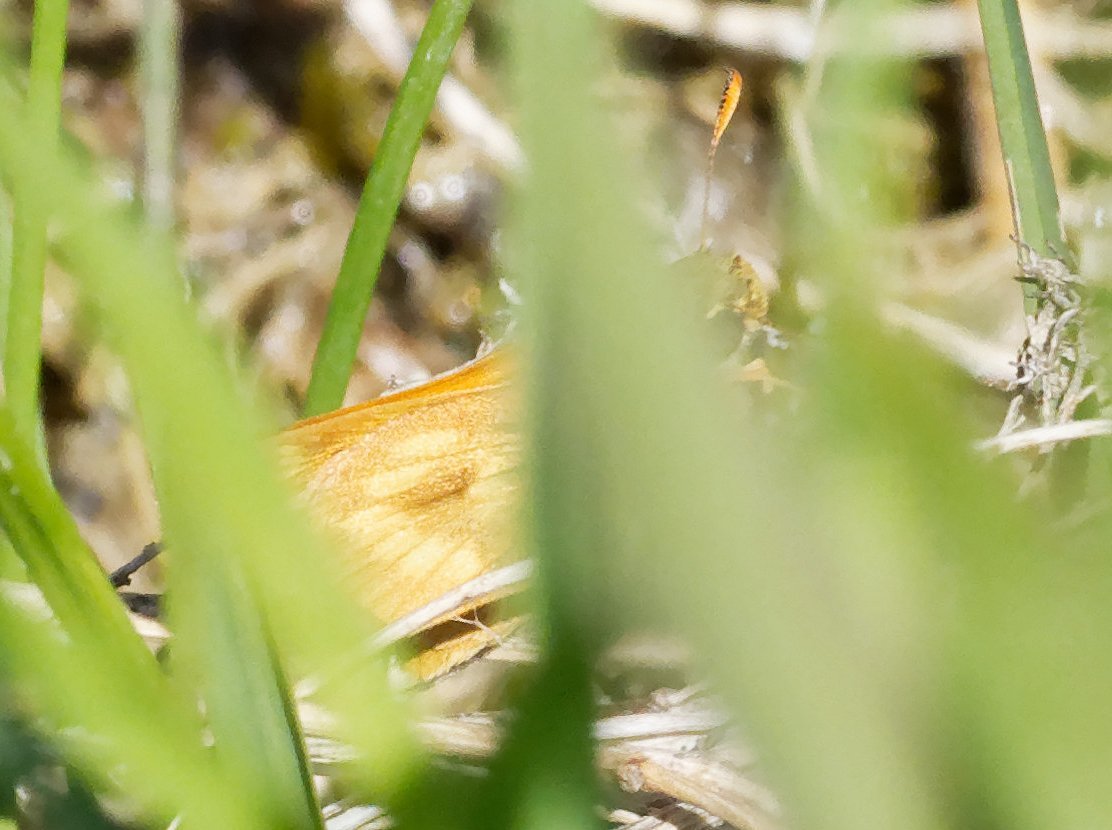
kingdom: Animalia
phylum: Arthropoda
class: Insecta
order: Lepidoptera
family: Hesperiidae
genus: Polites
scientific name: Polites
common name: Long Dash Skipper
